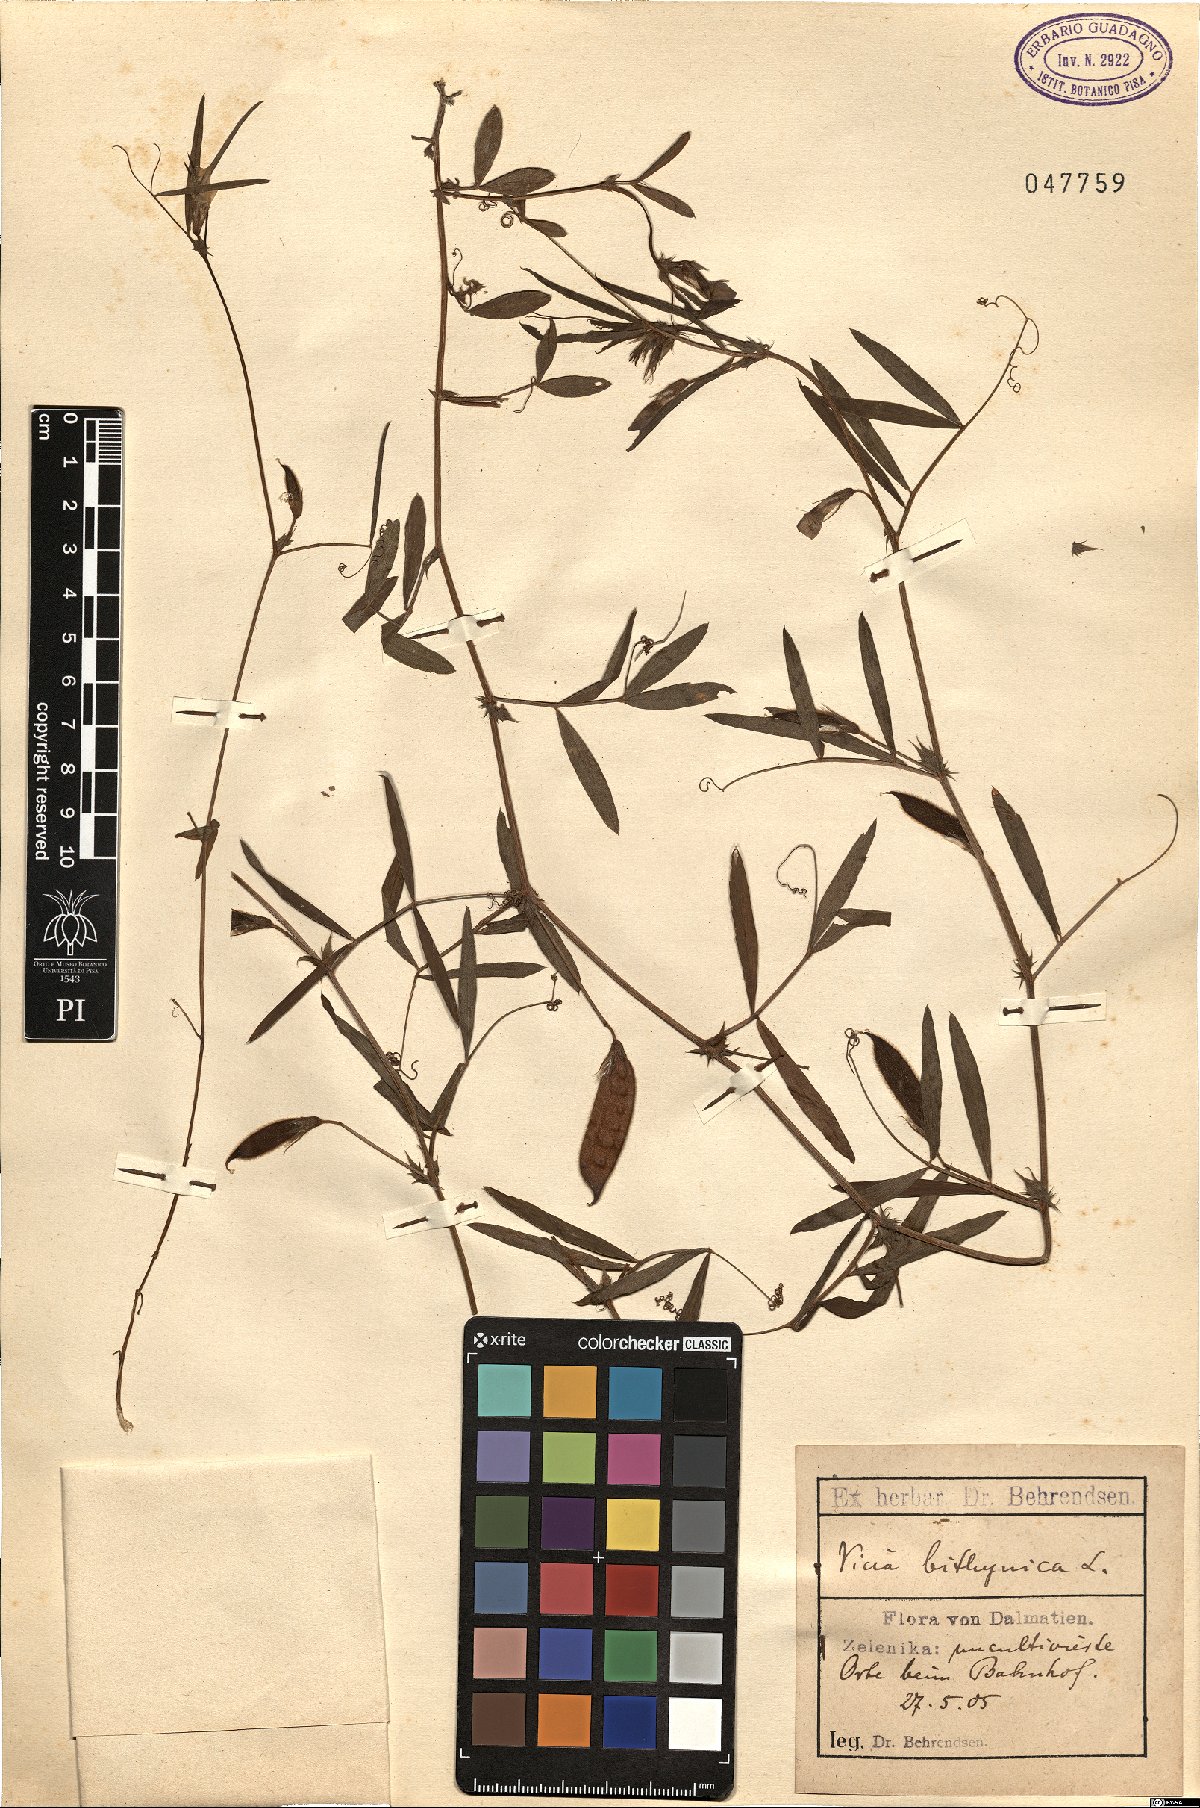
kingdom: Plantae
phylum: Tracheophyta
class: Magnoliopsida
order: Fabales
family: Fabaceae
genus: Vicia
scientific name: Vicia bithynica
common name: Bithynian vetch
